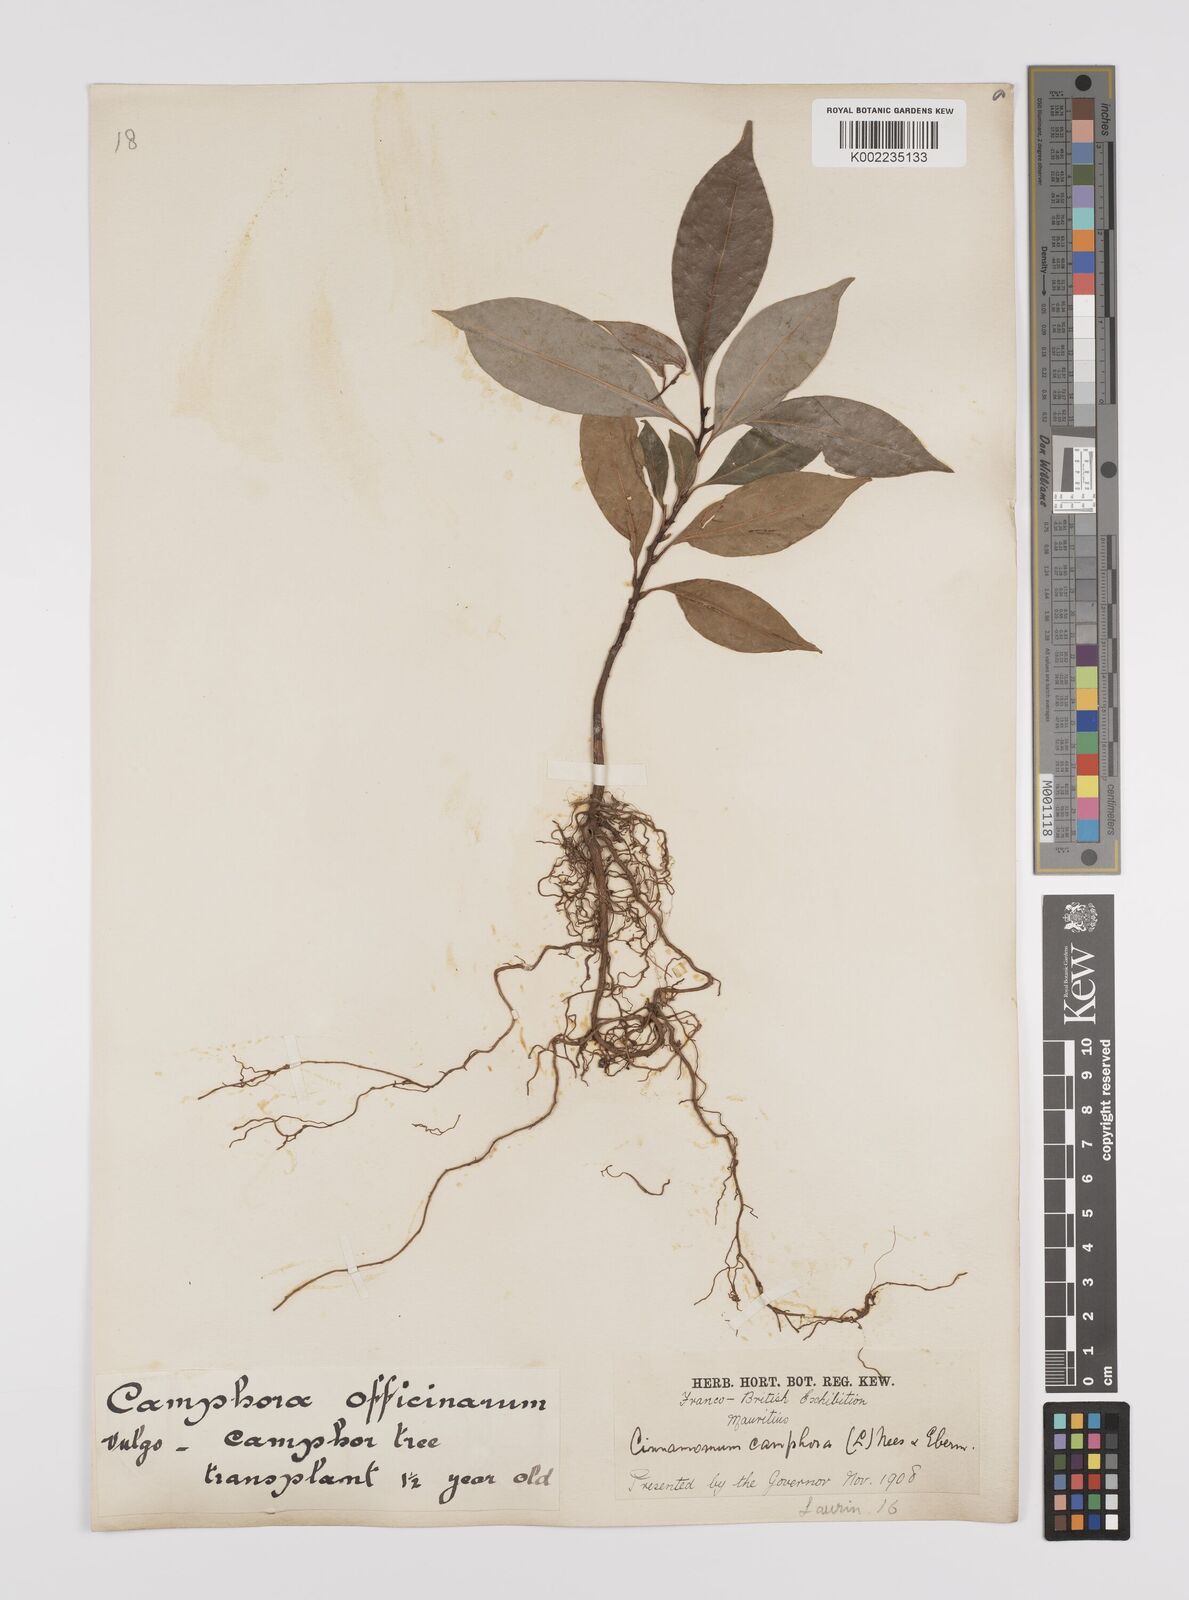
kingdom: Plantae
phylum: Tracheophyta
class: Magnoliopsida
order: Laurales
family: Lauraceae
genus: Cinnamomum
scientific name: Cinnamomum camphora
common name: Camphortree
